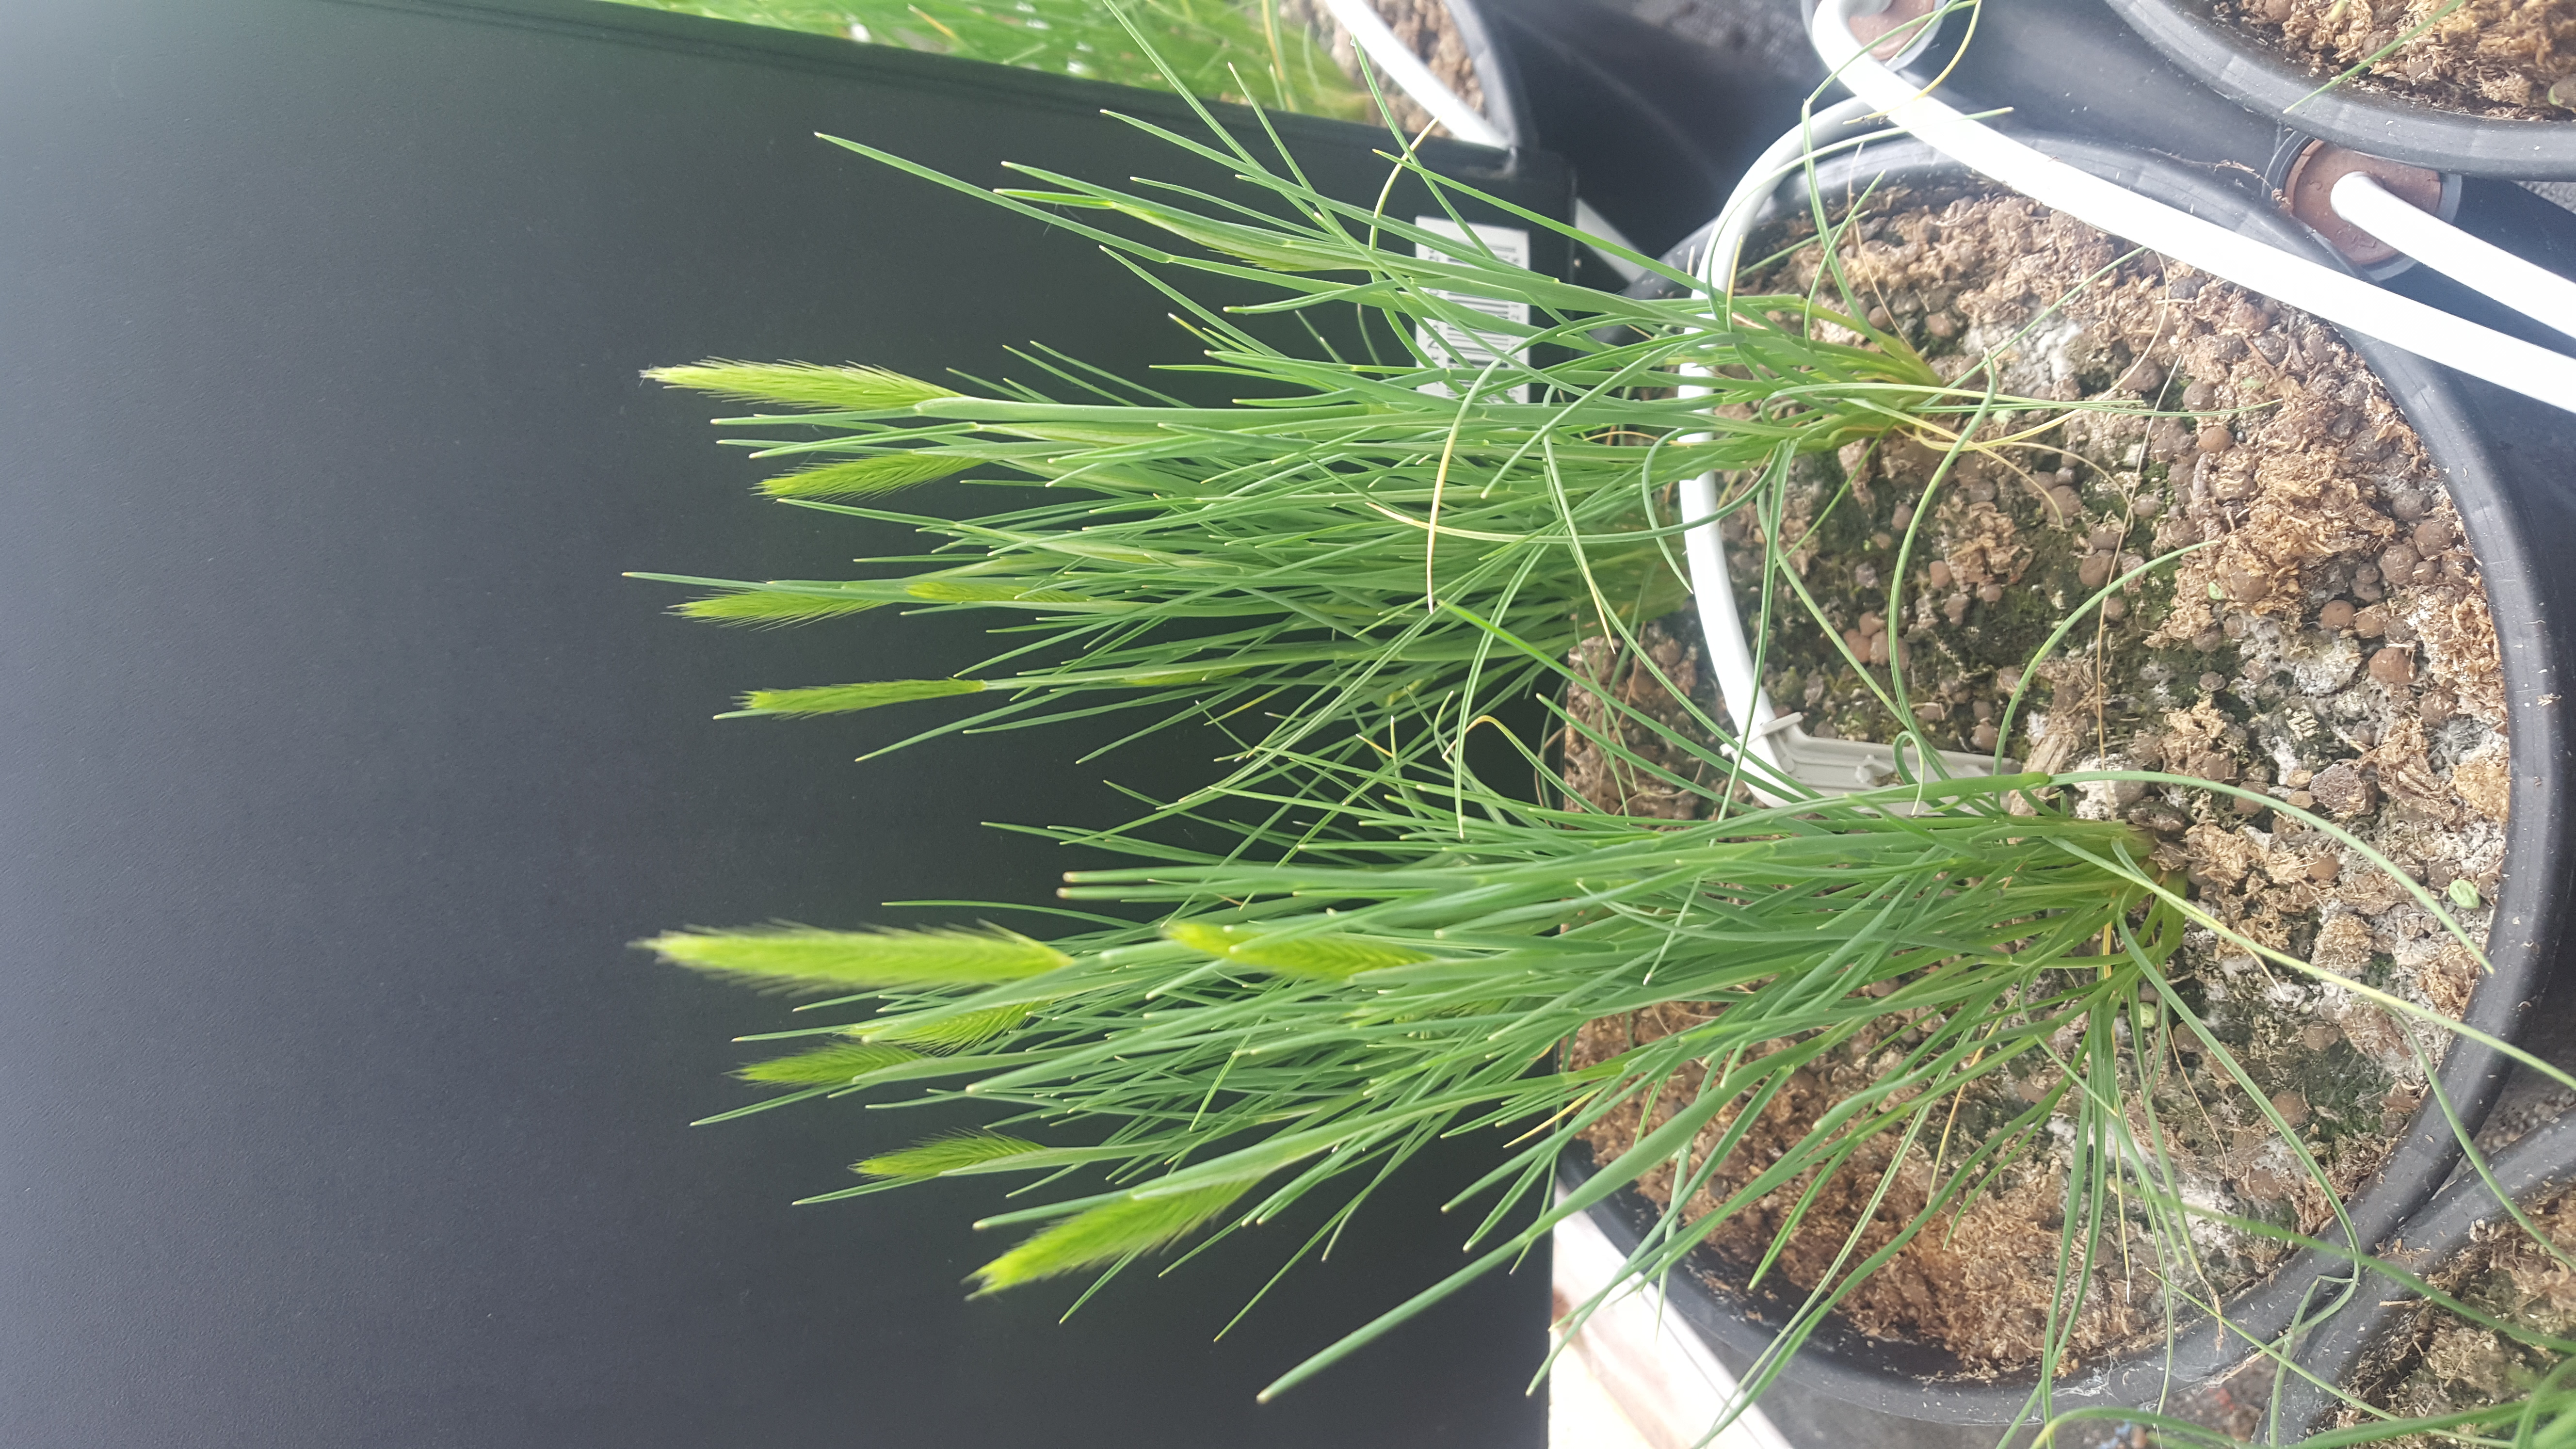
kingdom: Plantae
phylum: Tracheophyta
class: Liliopsida
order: Poales
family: Poaceae
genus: Hordeum
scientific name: Hordeum patagonicum
